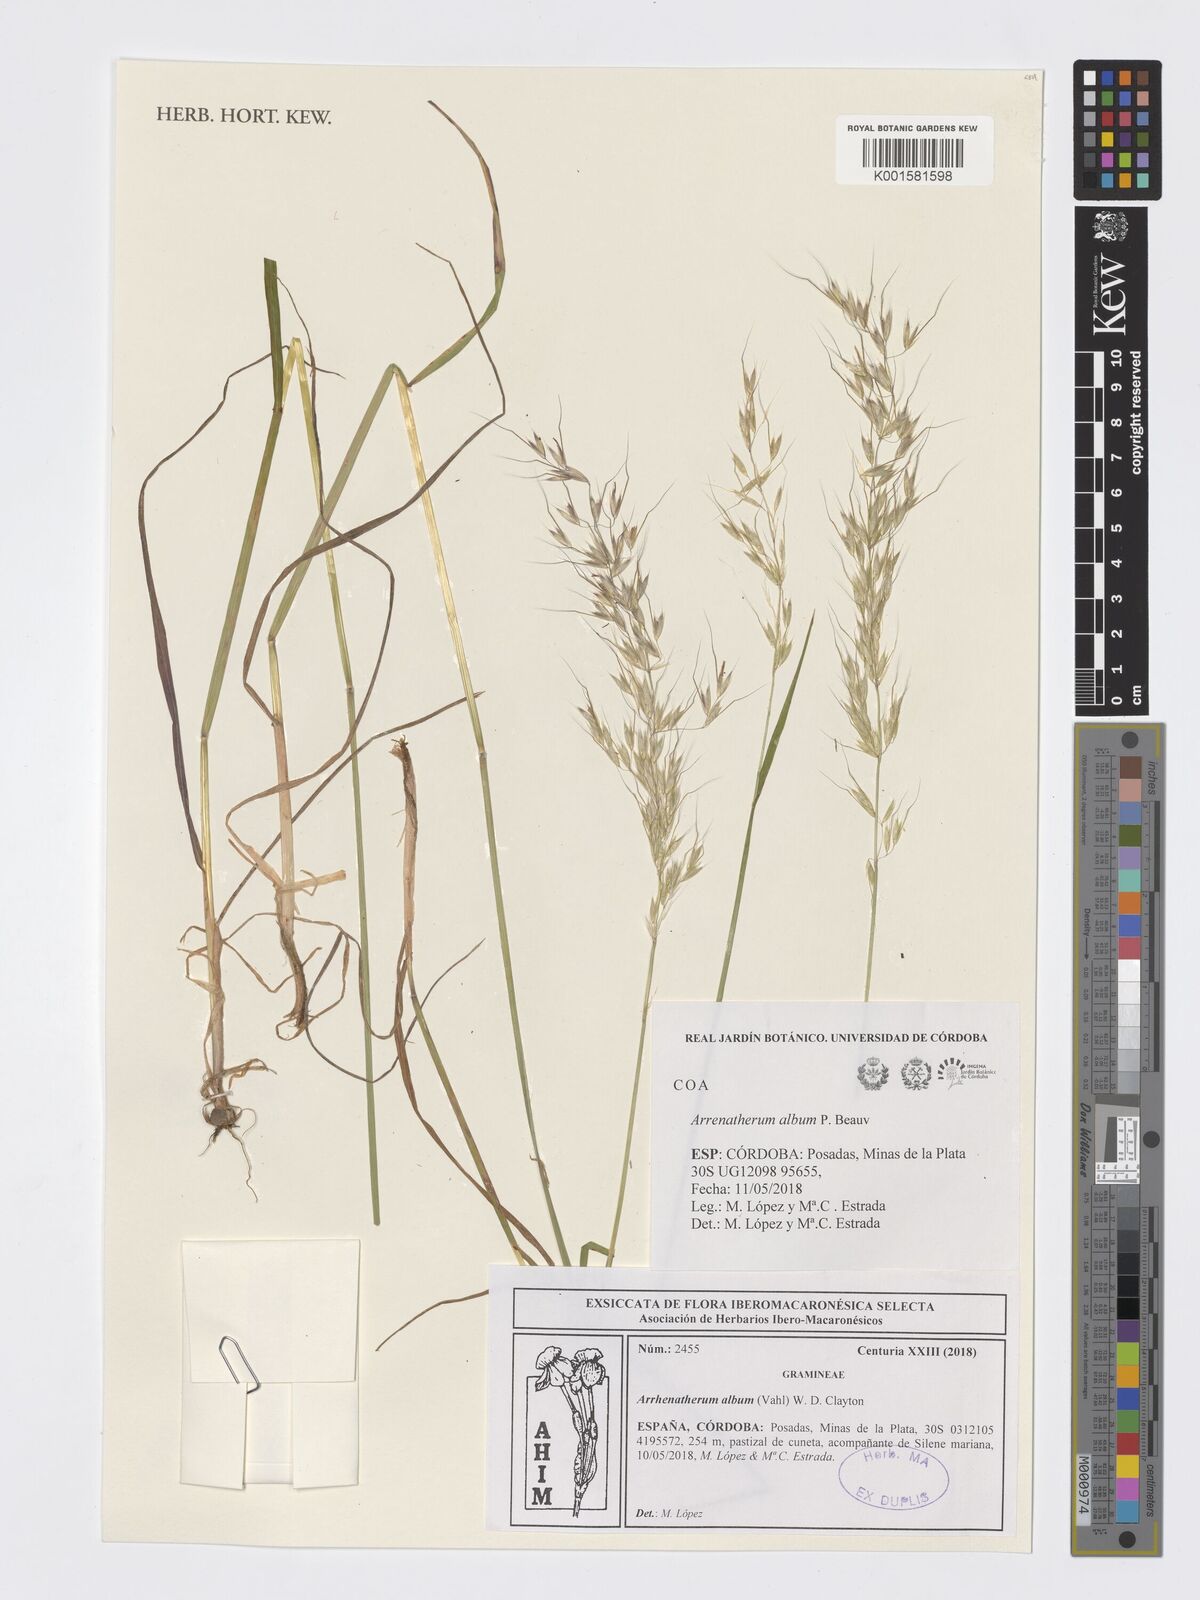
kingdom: Plantae
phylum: Tracheophyta
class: Liliopsida
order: Poales
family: Poaceae
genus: Arrhenatherum
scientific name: Arrhenatherum album
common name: Tall oat grass
